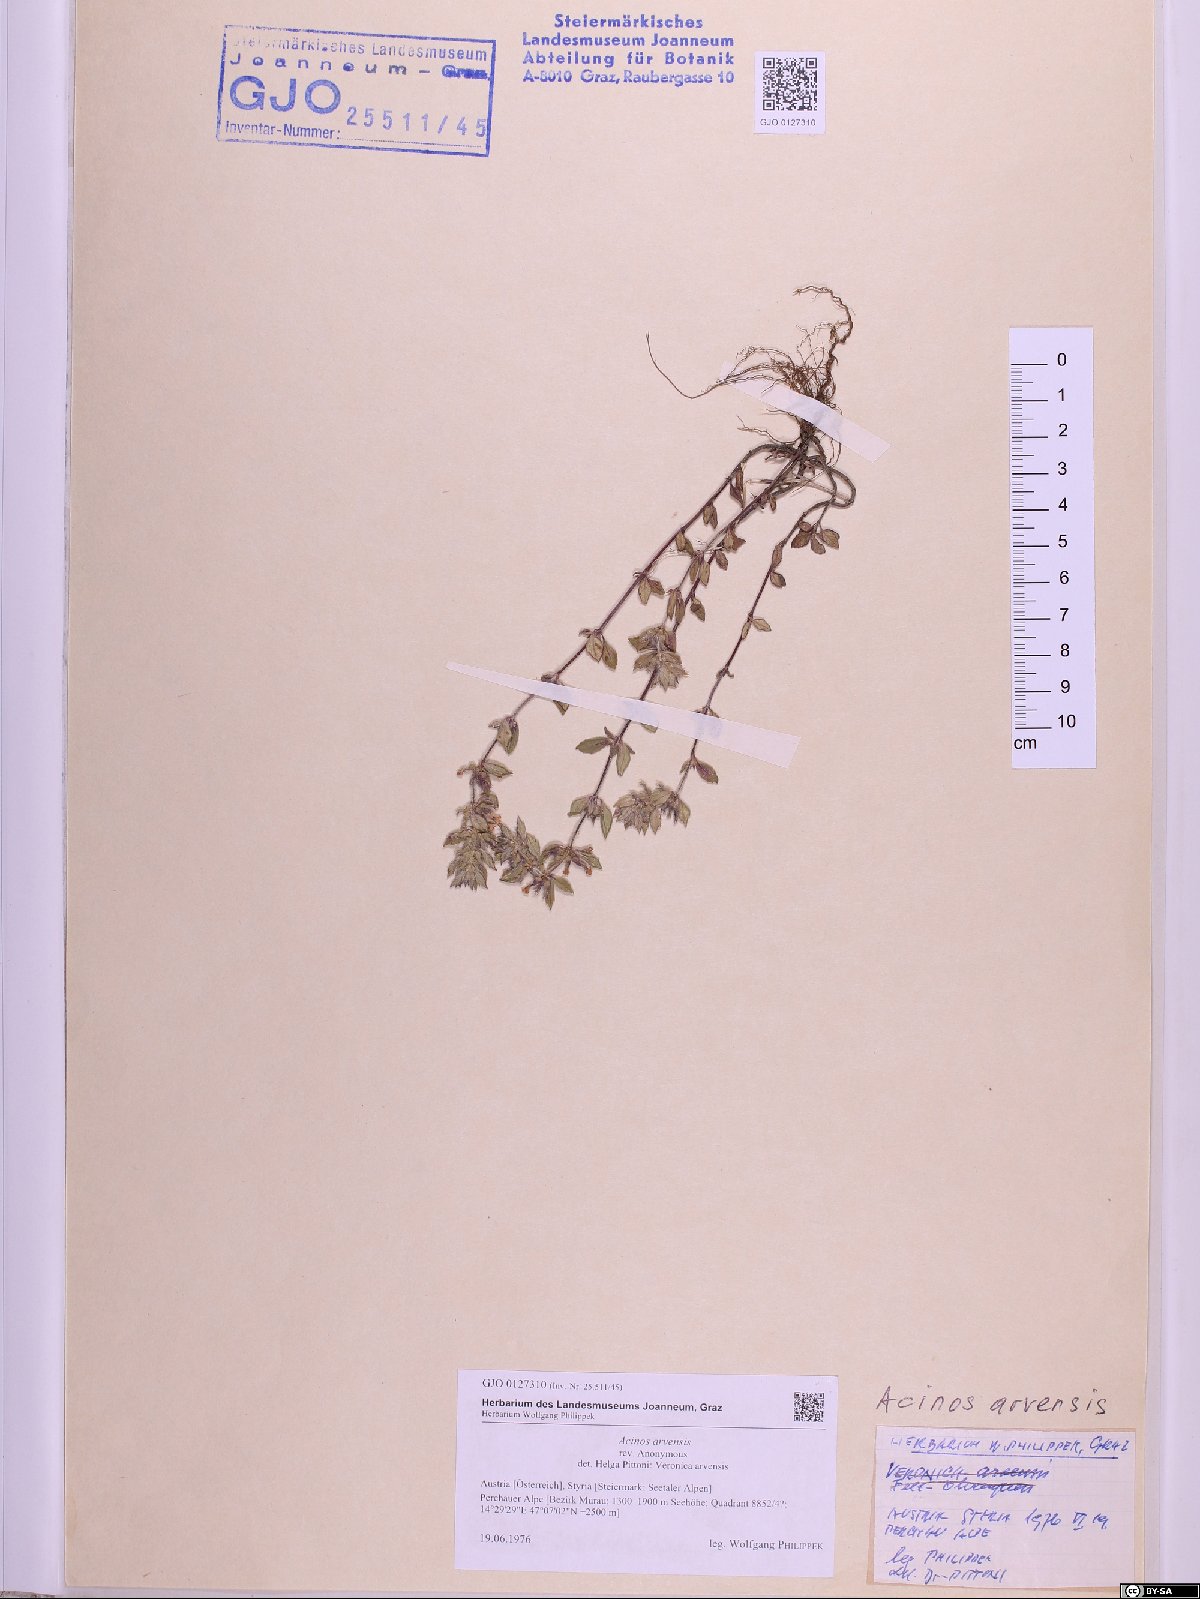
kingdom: Plantae
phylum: Tracheophyta
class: Magnoliopsida
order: Lamiales
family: Lamiaceae
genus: Clinopodium
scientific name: Clinopodium acinos
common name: Basil thyme
